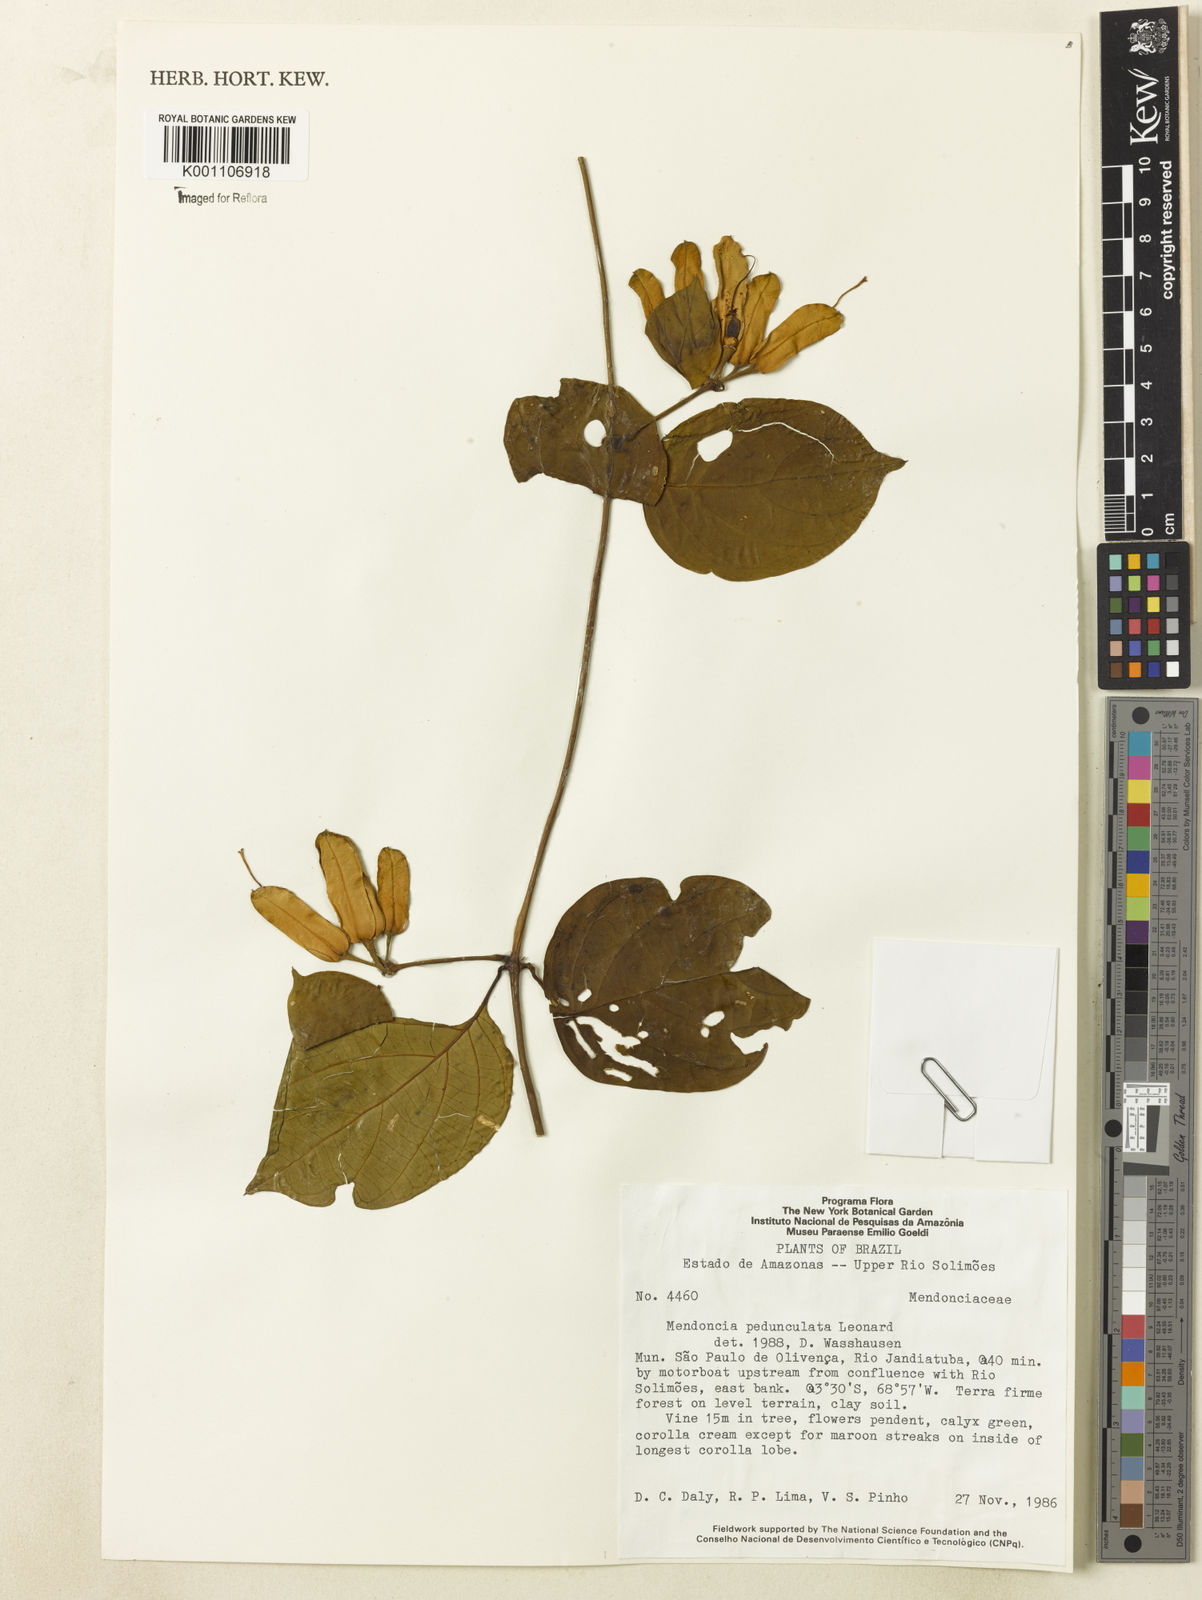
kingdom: Plantae
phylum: Tracheophyta
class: Magnoliopsida
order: Lamiales
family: Acanthaceae
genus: Mendoncia
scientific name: Mendoncia pedunculata
